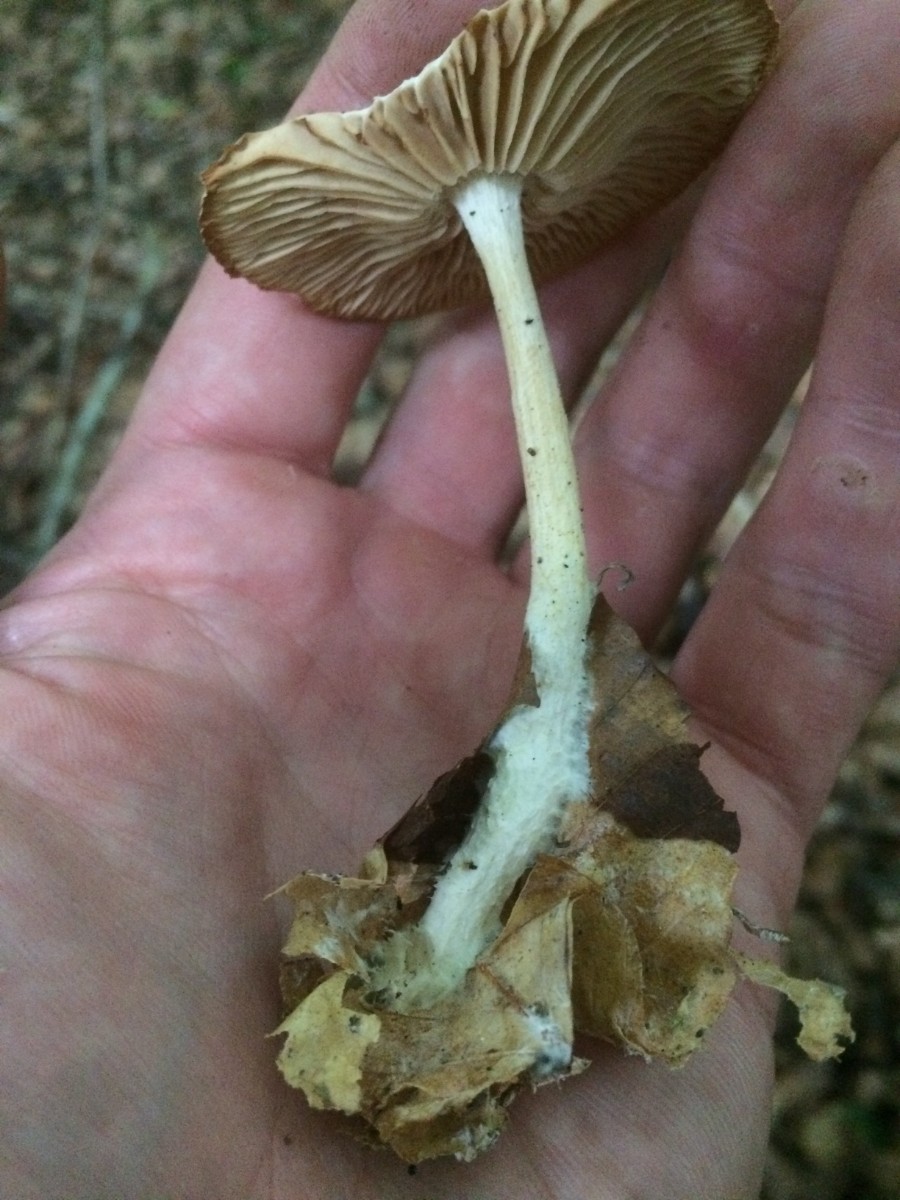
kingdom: Fungi
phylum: Basidiomycota
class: Agaricomycetes
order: Agaricales
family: Omphalotaceae
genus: Collybiopsis
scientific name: Collybiopsis peronata
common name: bestøvlet fladhat
